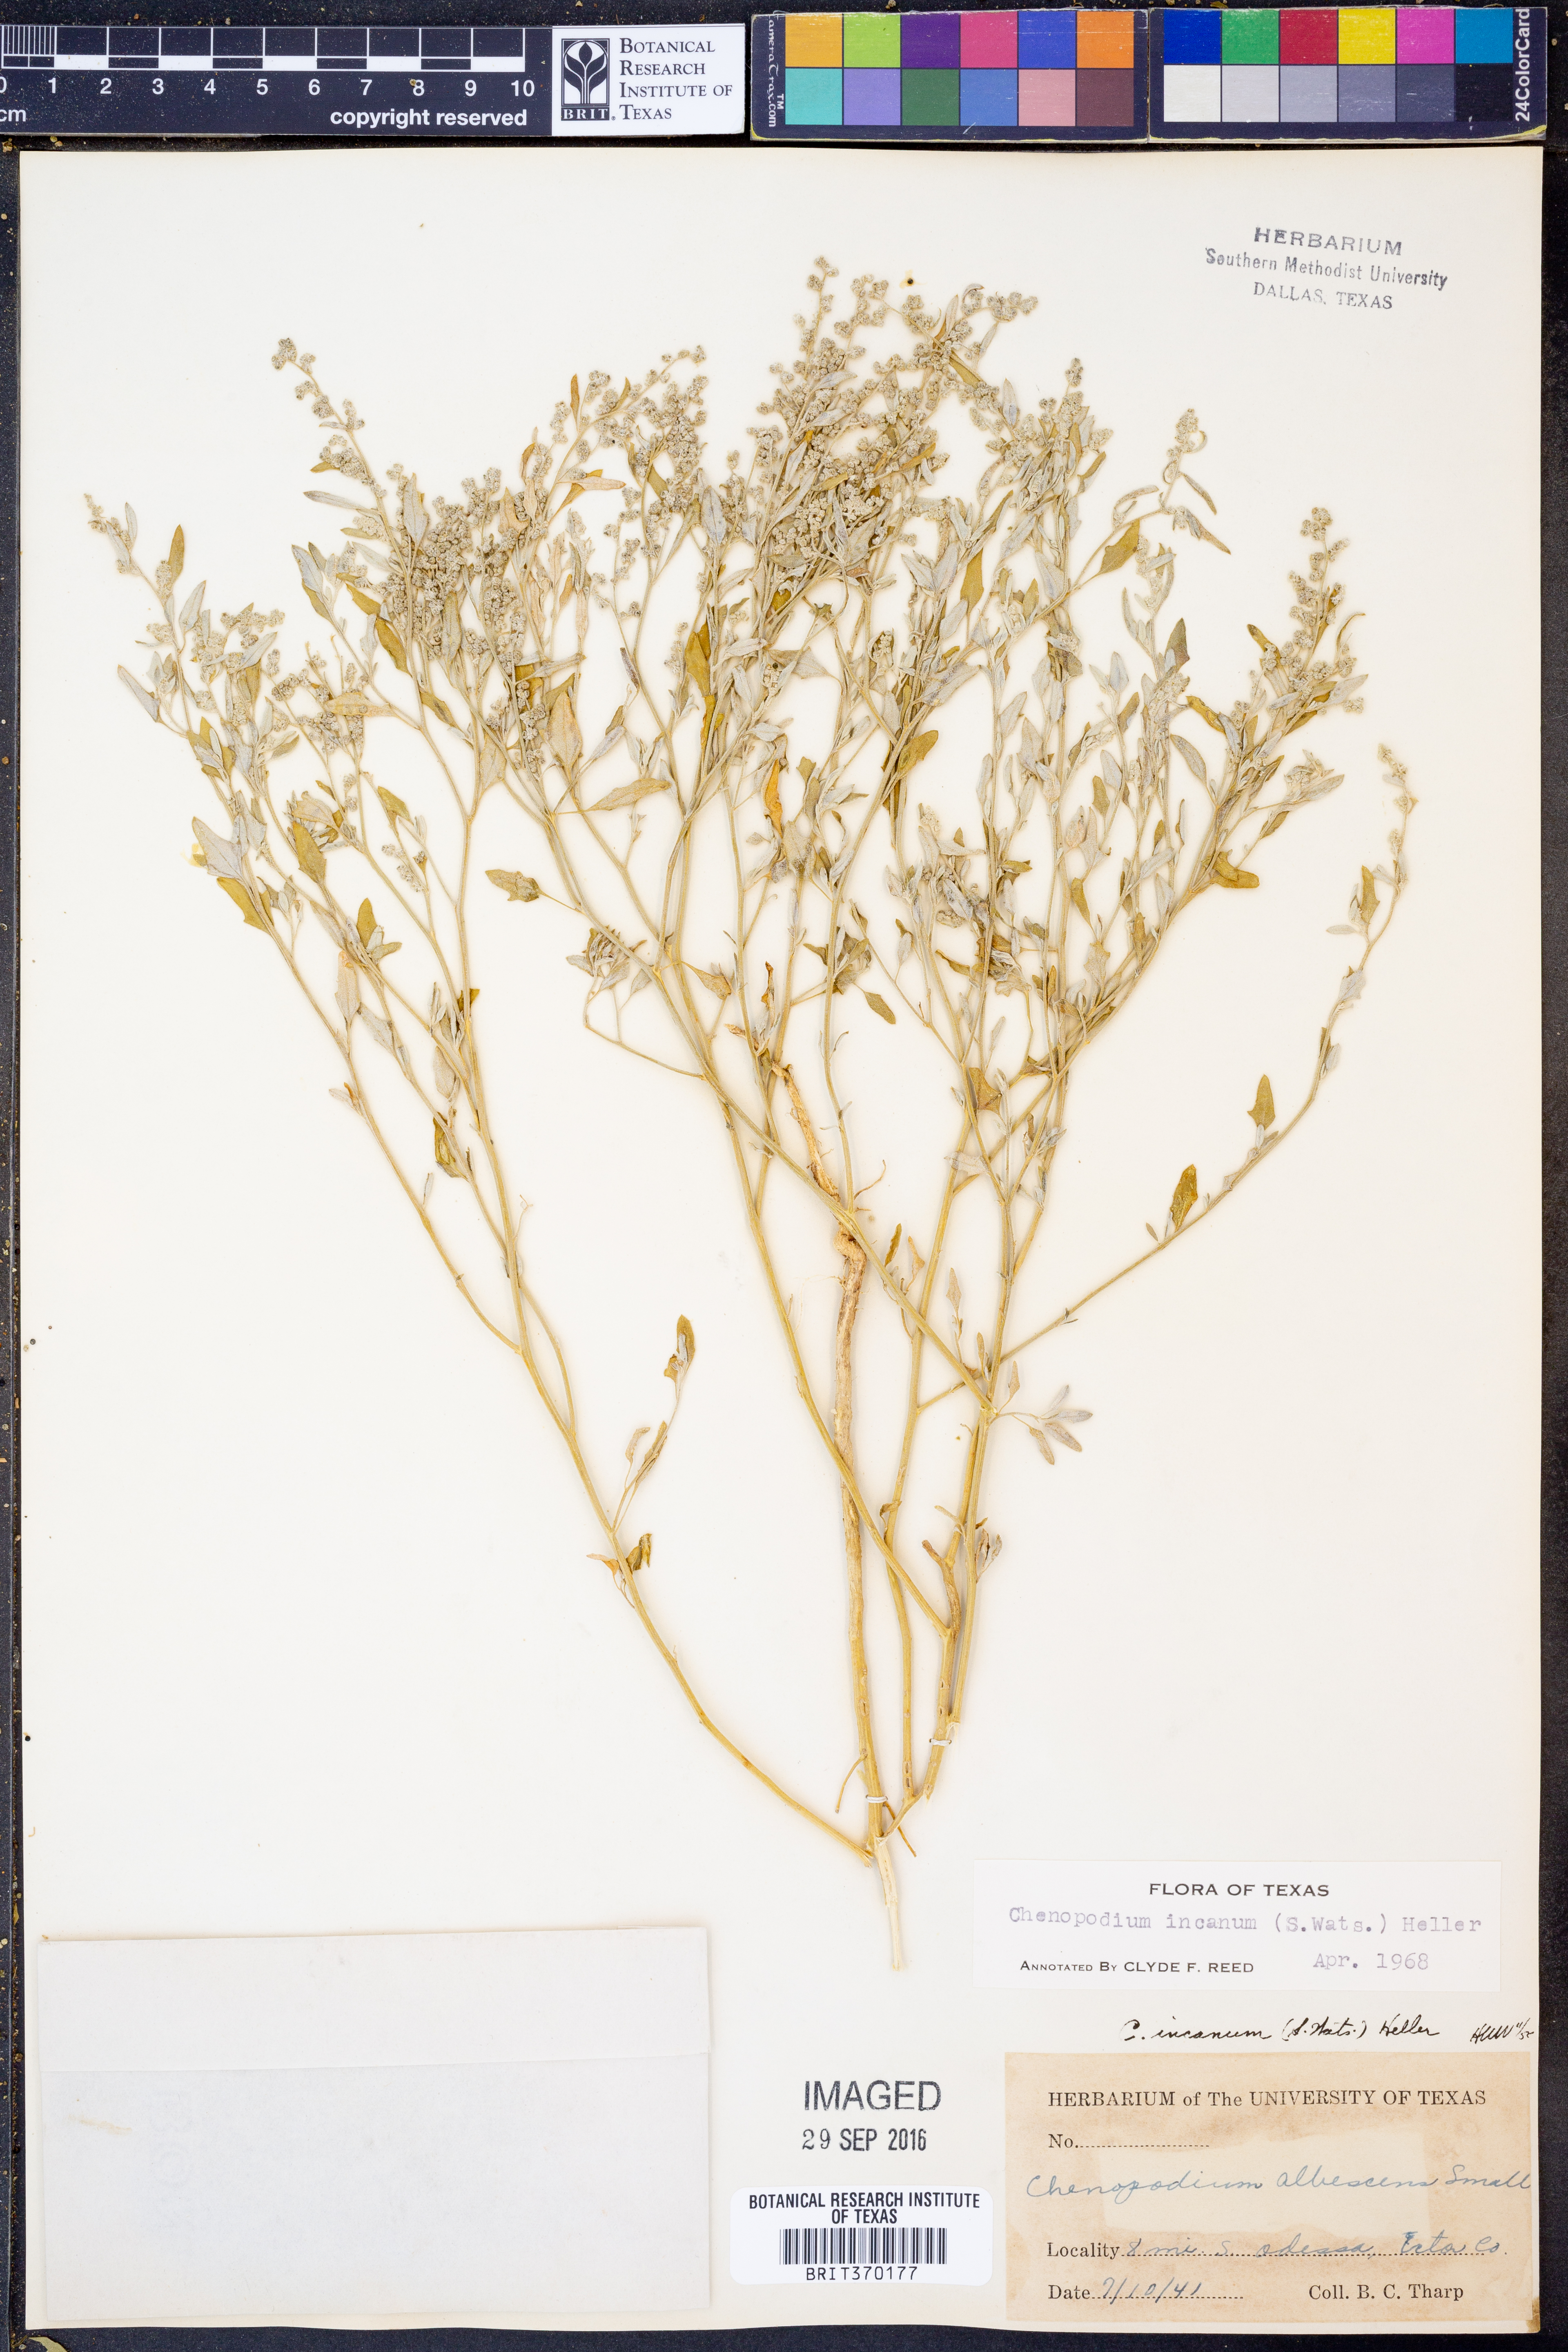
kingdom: Plantae
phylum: Tracheophyta
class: Magnoliopsida
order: Caryophyllales
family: Amaranthaceae
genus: Chenopodium
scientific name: Chenopodium incanum
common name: Hoary goosefoot
